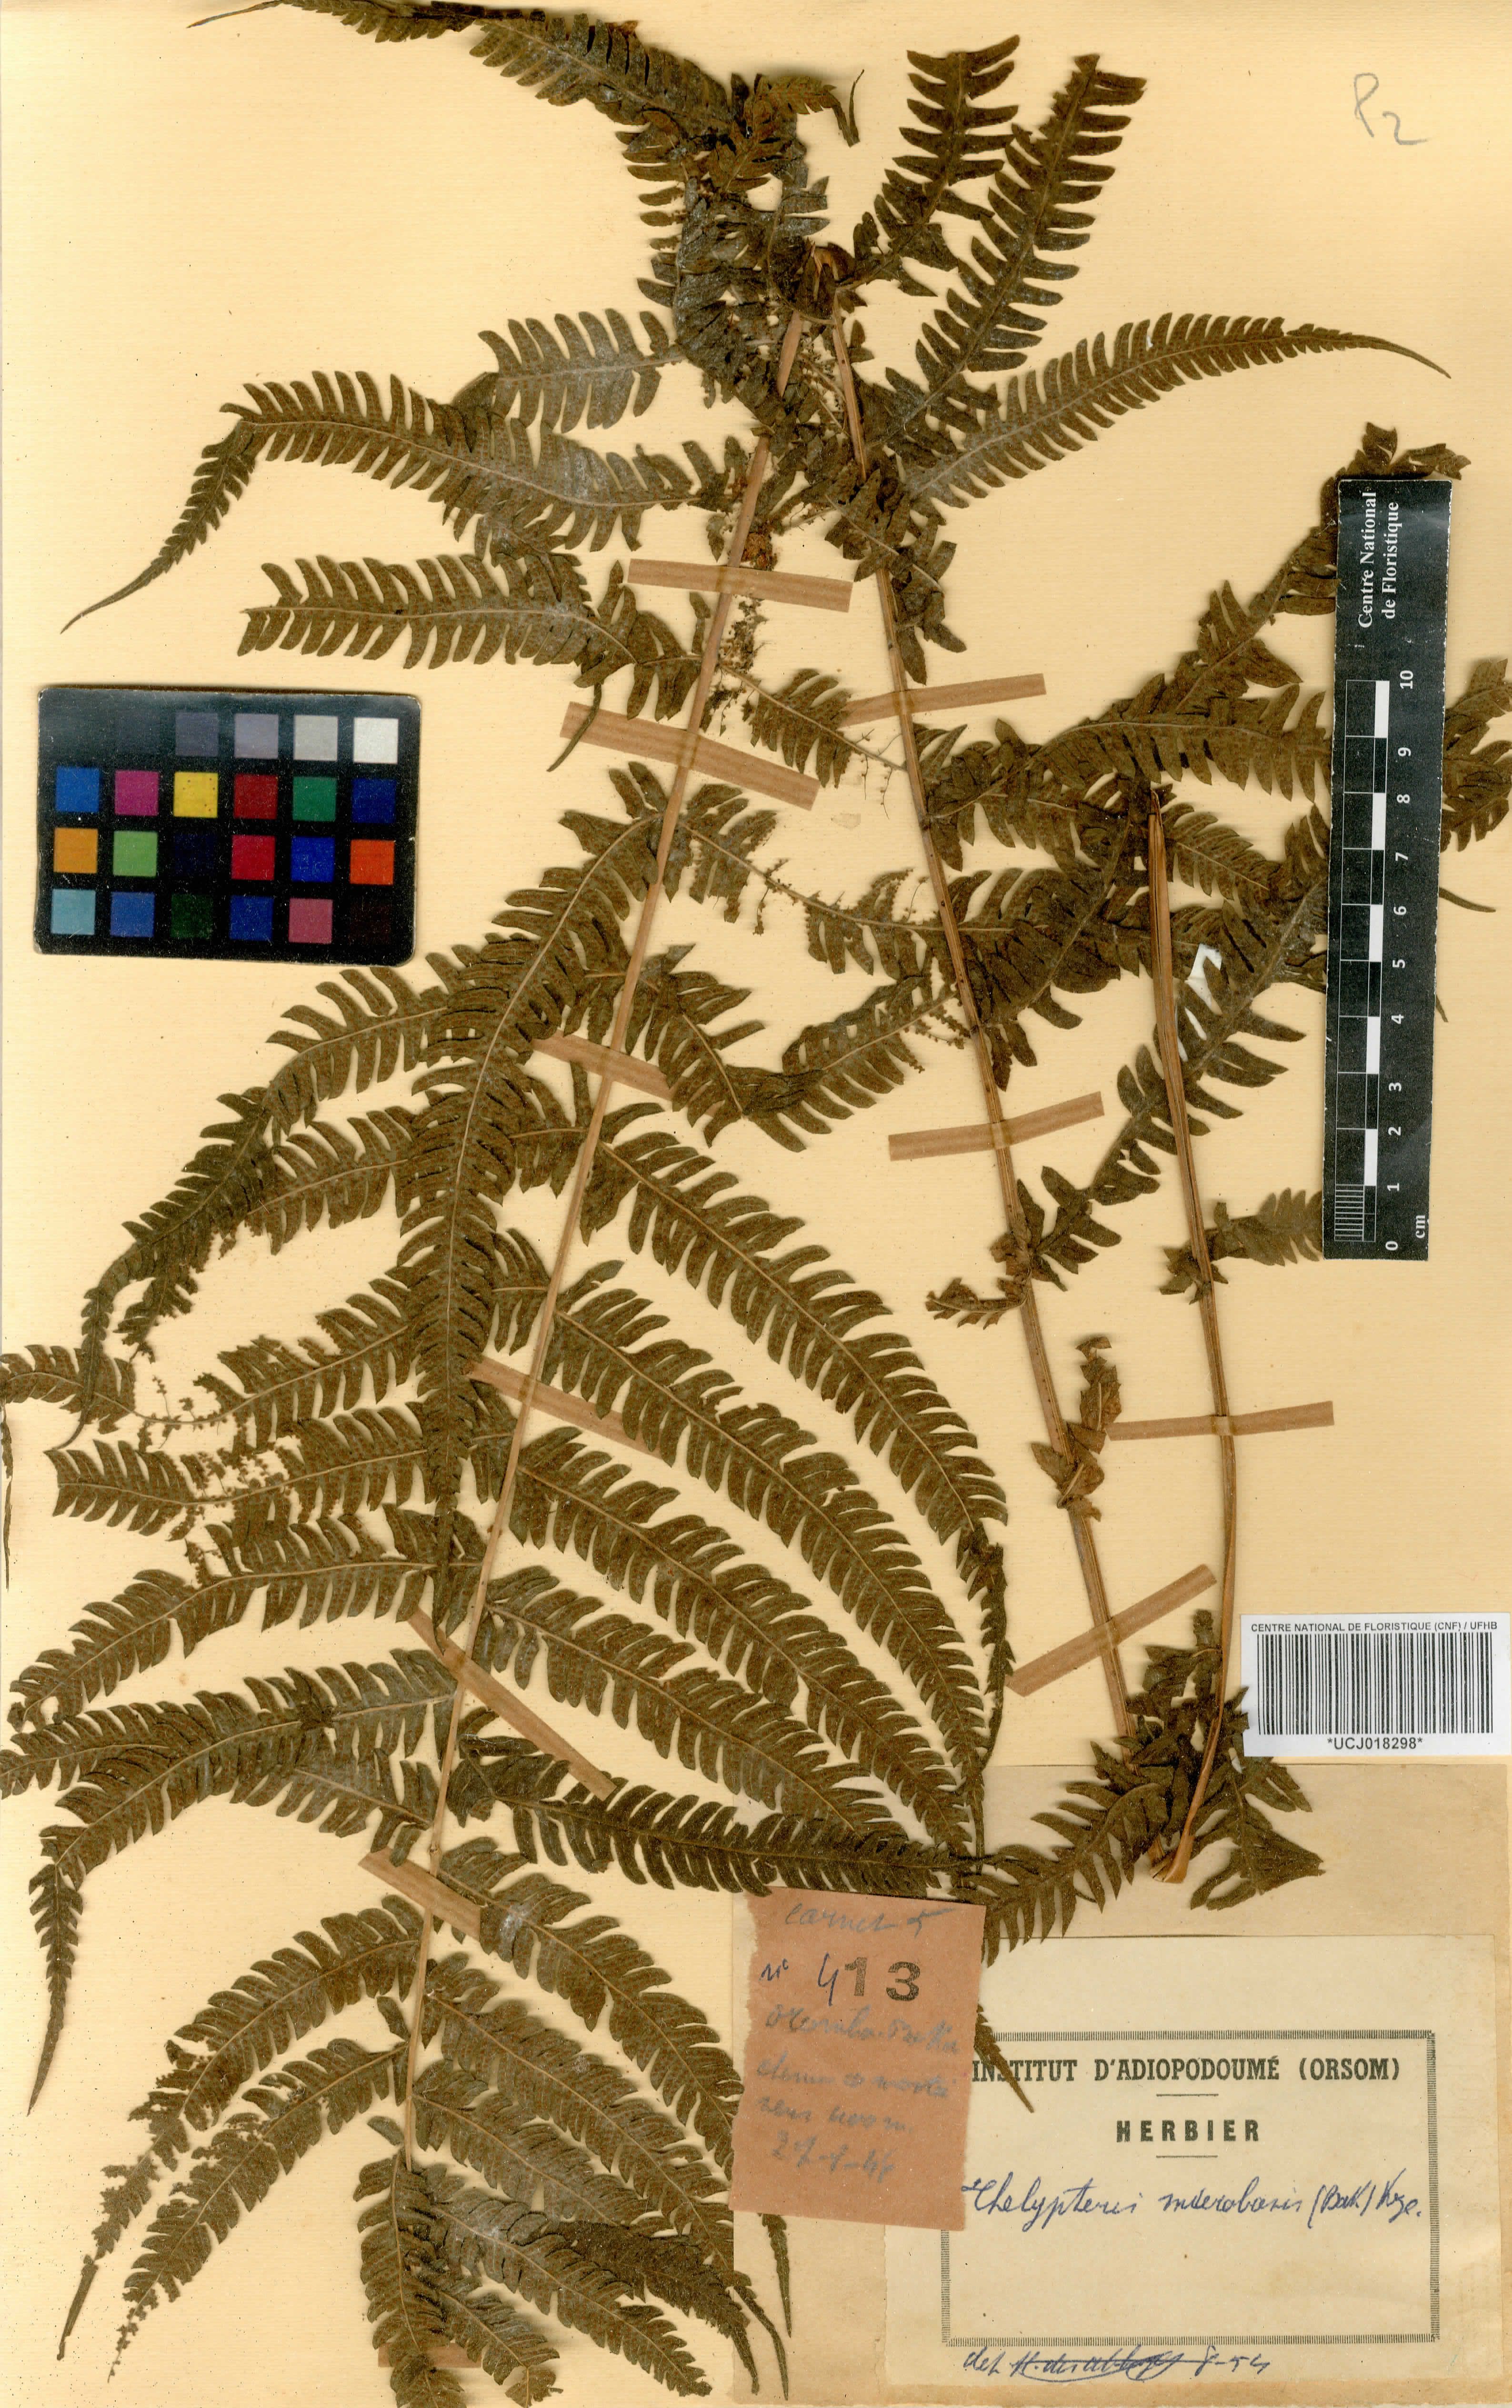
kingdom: Plantae
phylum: Tracheophyta
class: Polypodiopsida
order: Polypodiales
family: Thelypteridaceae
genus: Christella
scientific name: Christella microbasis
